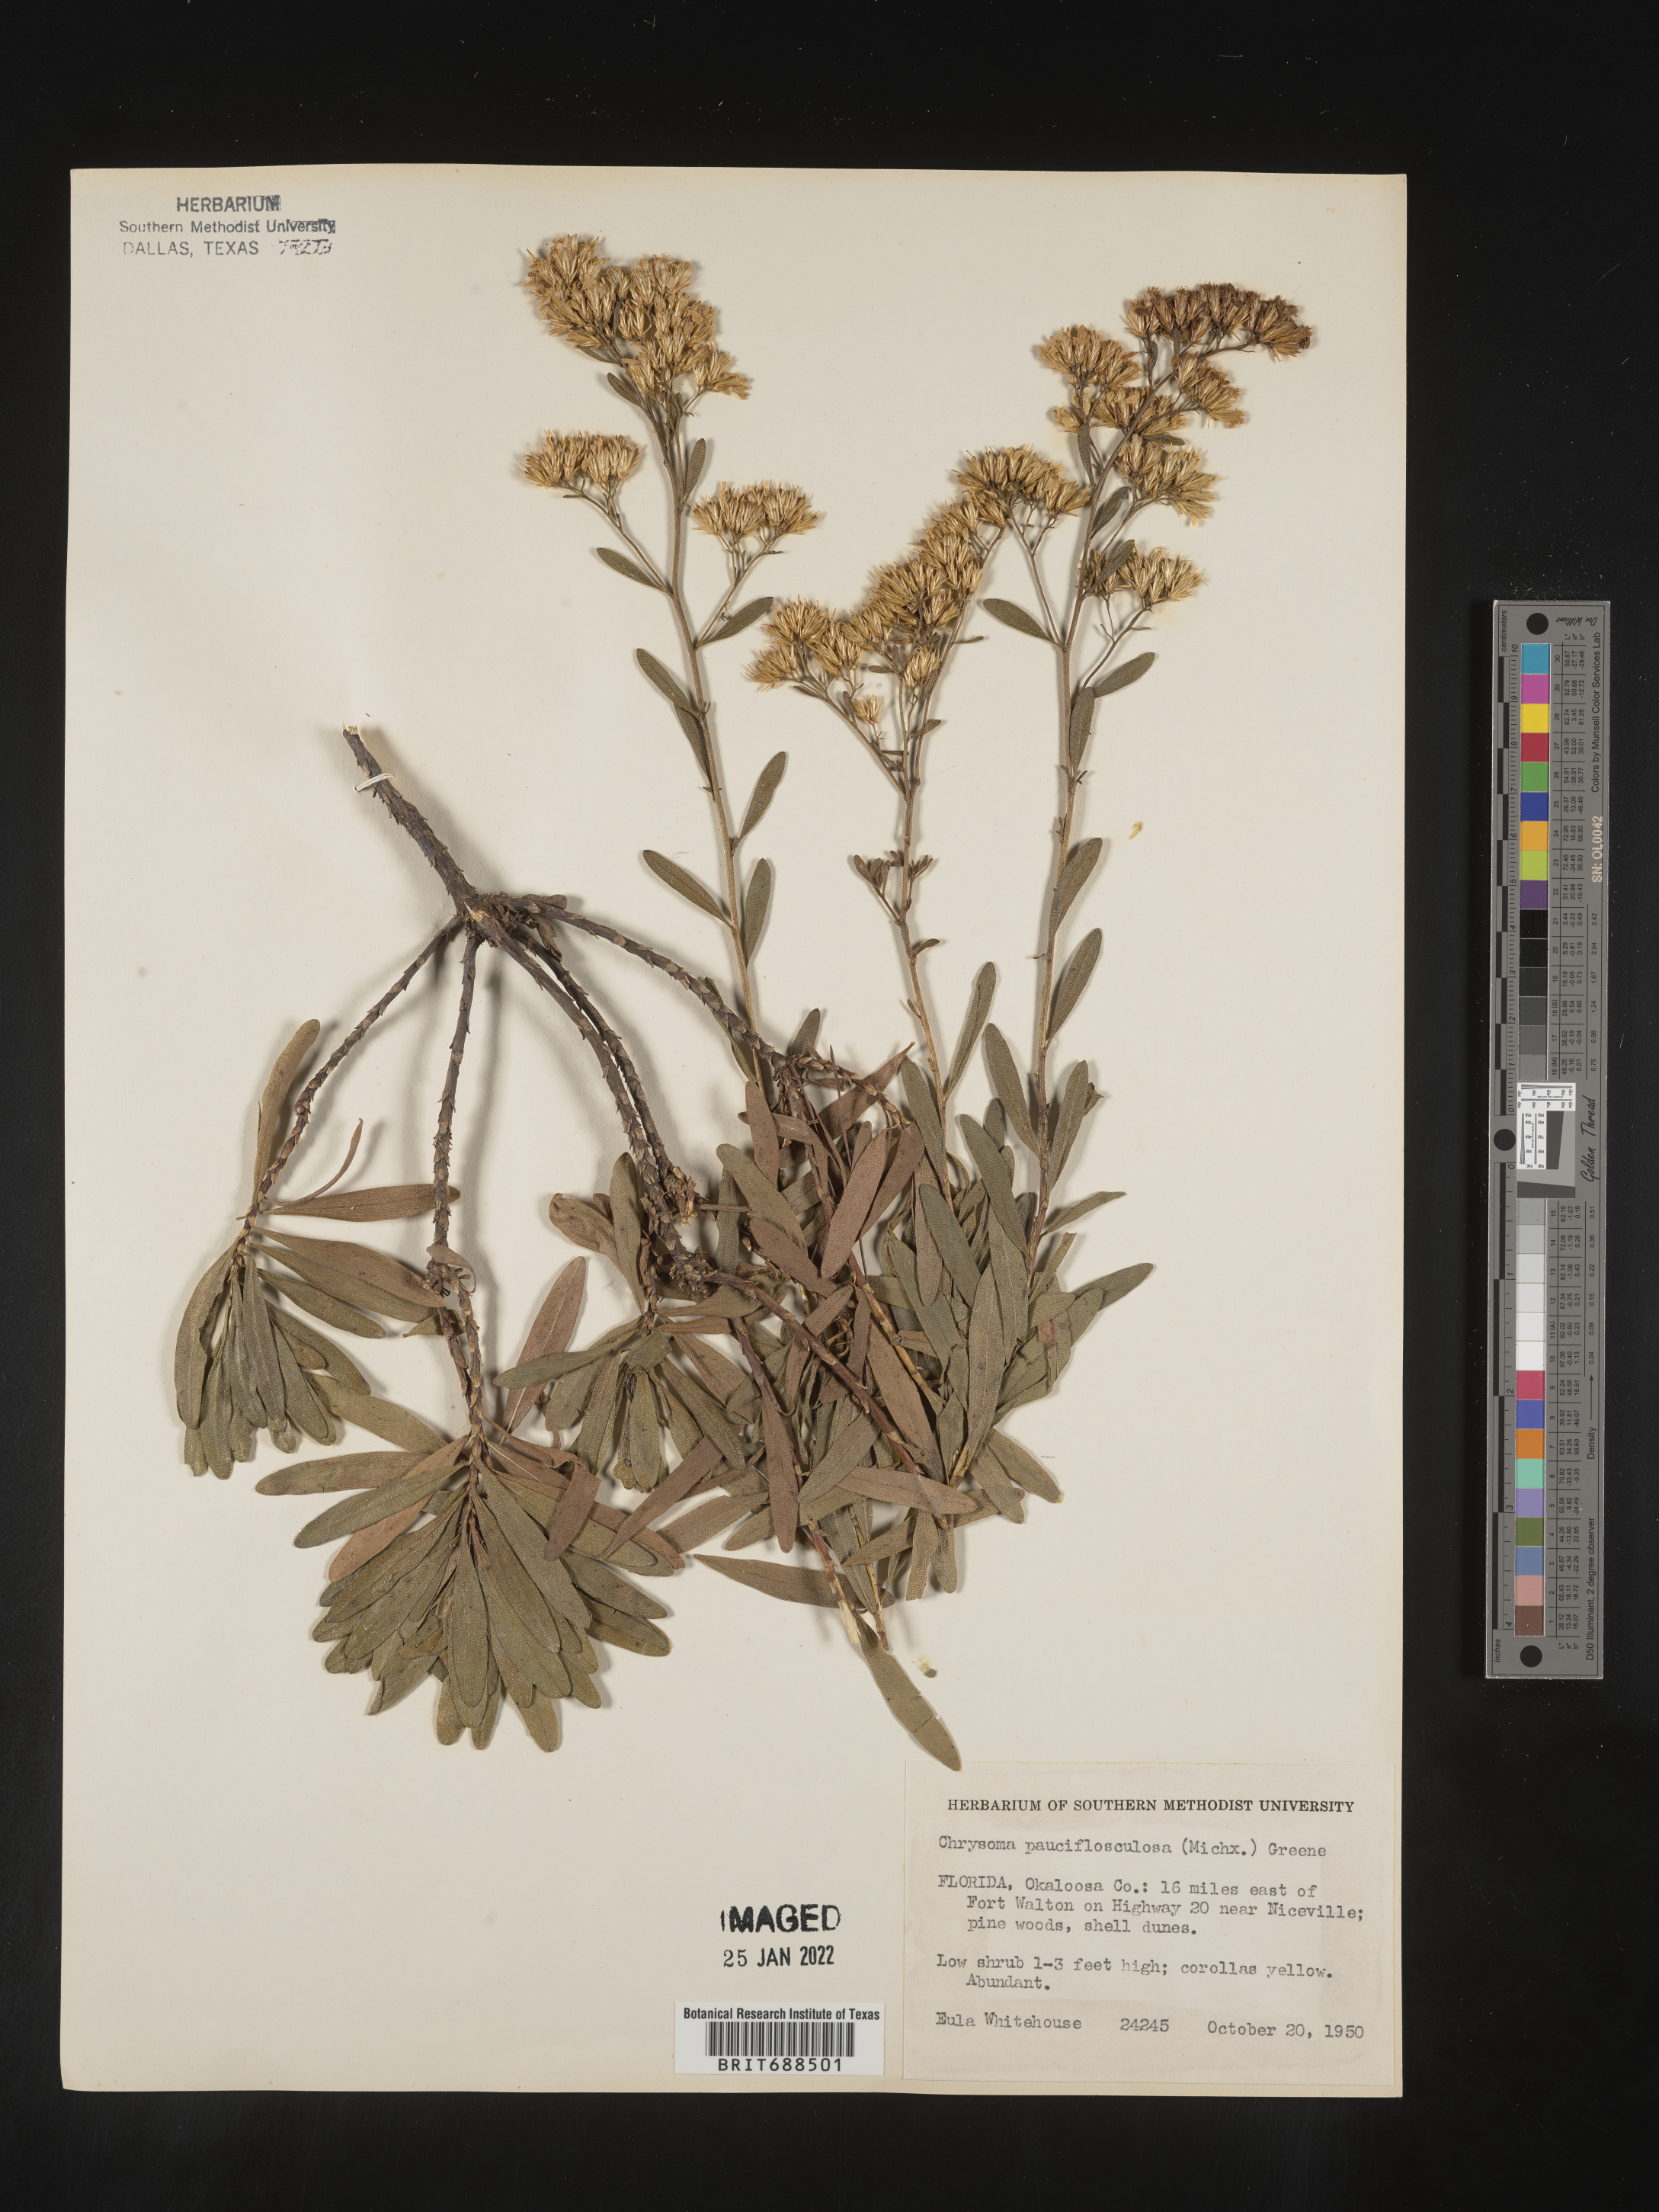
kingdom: Plantae
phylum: Tracheophyta
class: Magnoliopsida
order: Asterales
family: Asteraceae
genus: Chrysoma
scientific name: Chrysoma pauciflosculosa
